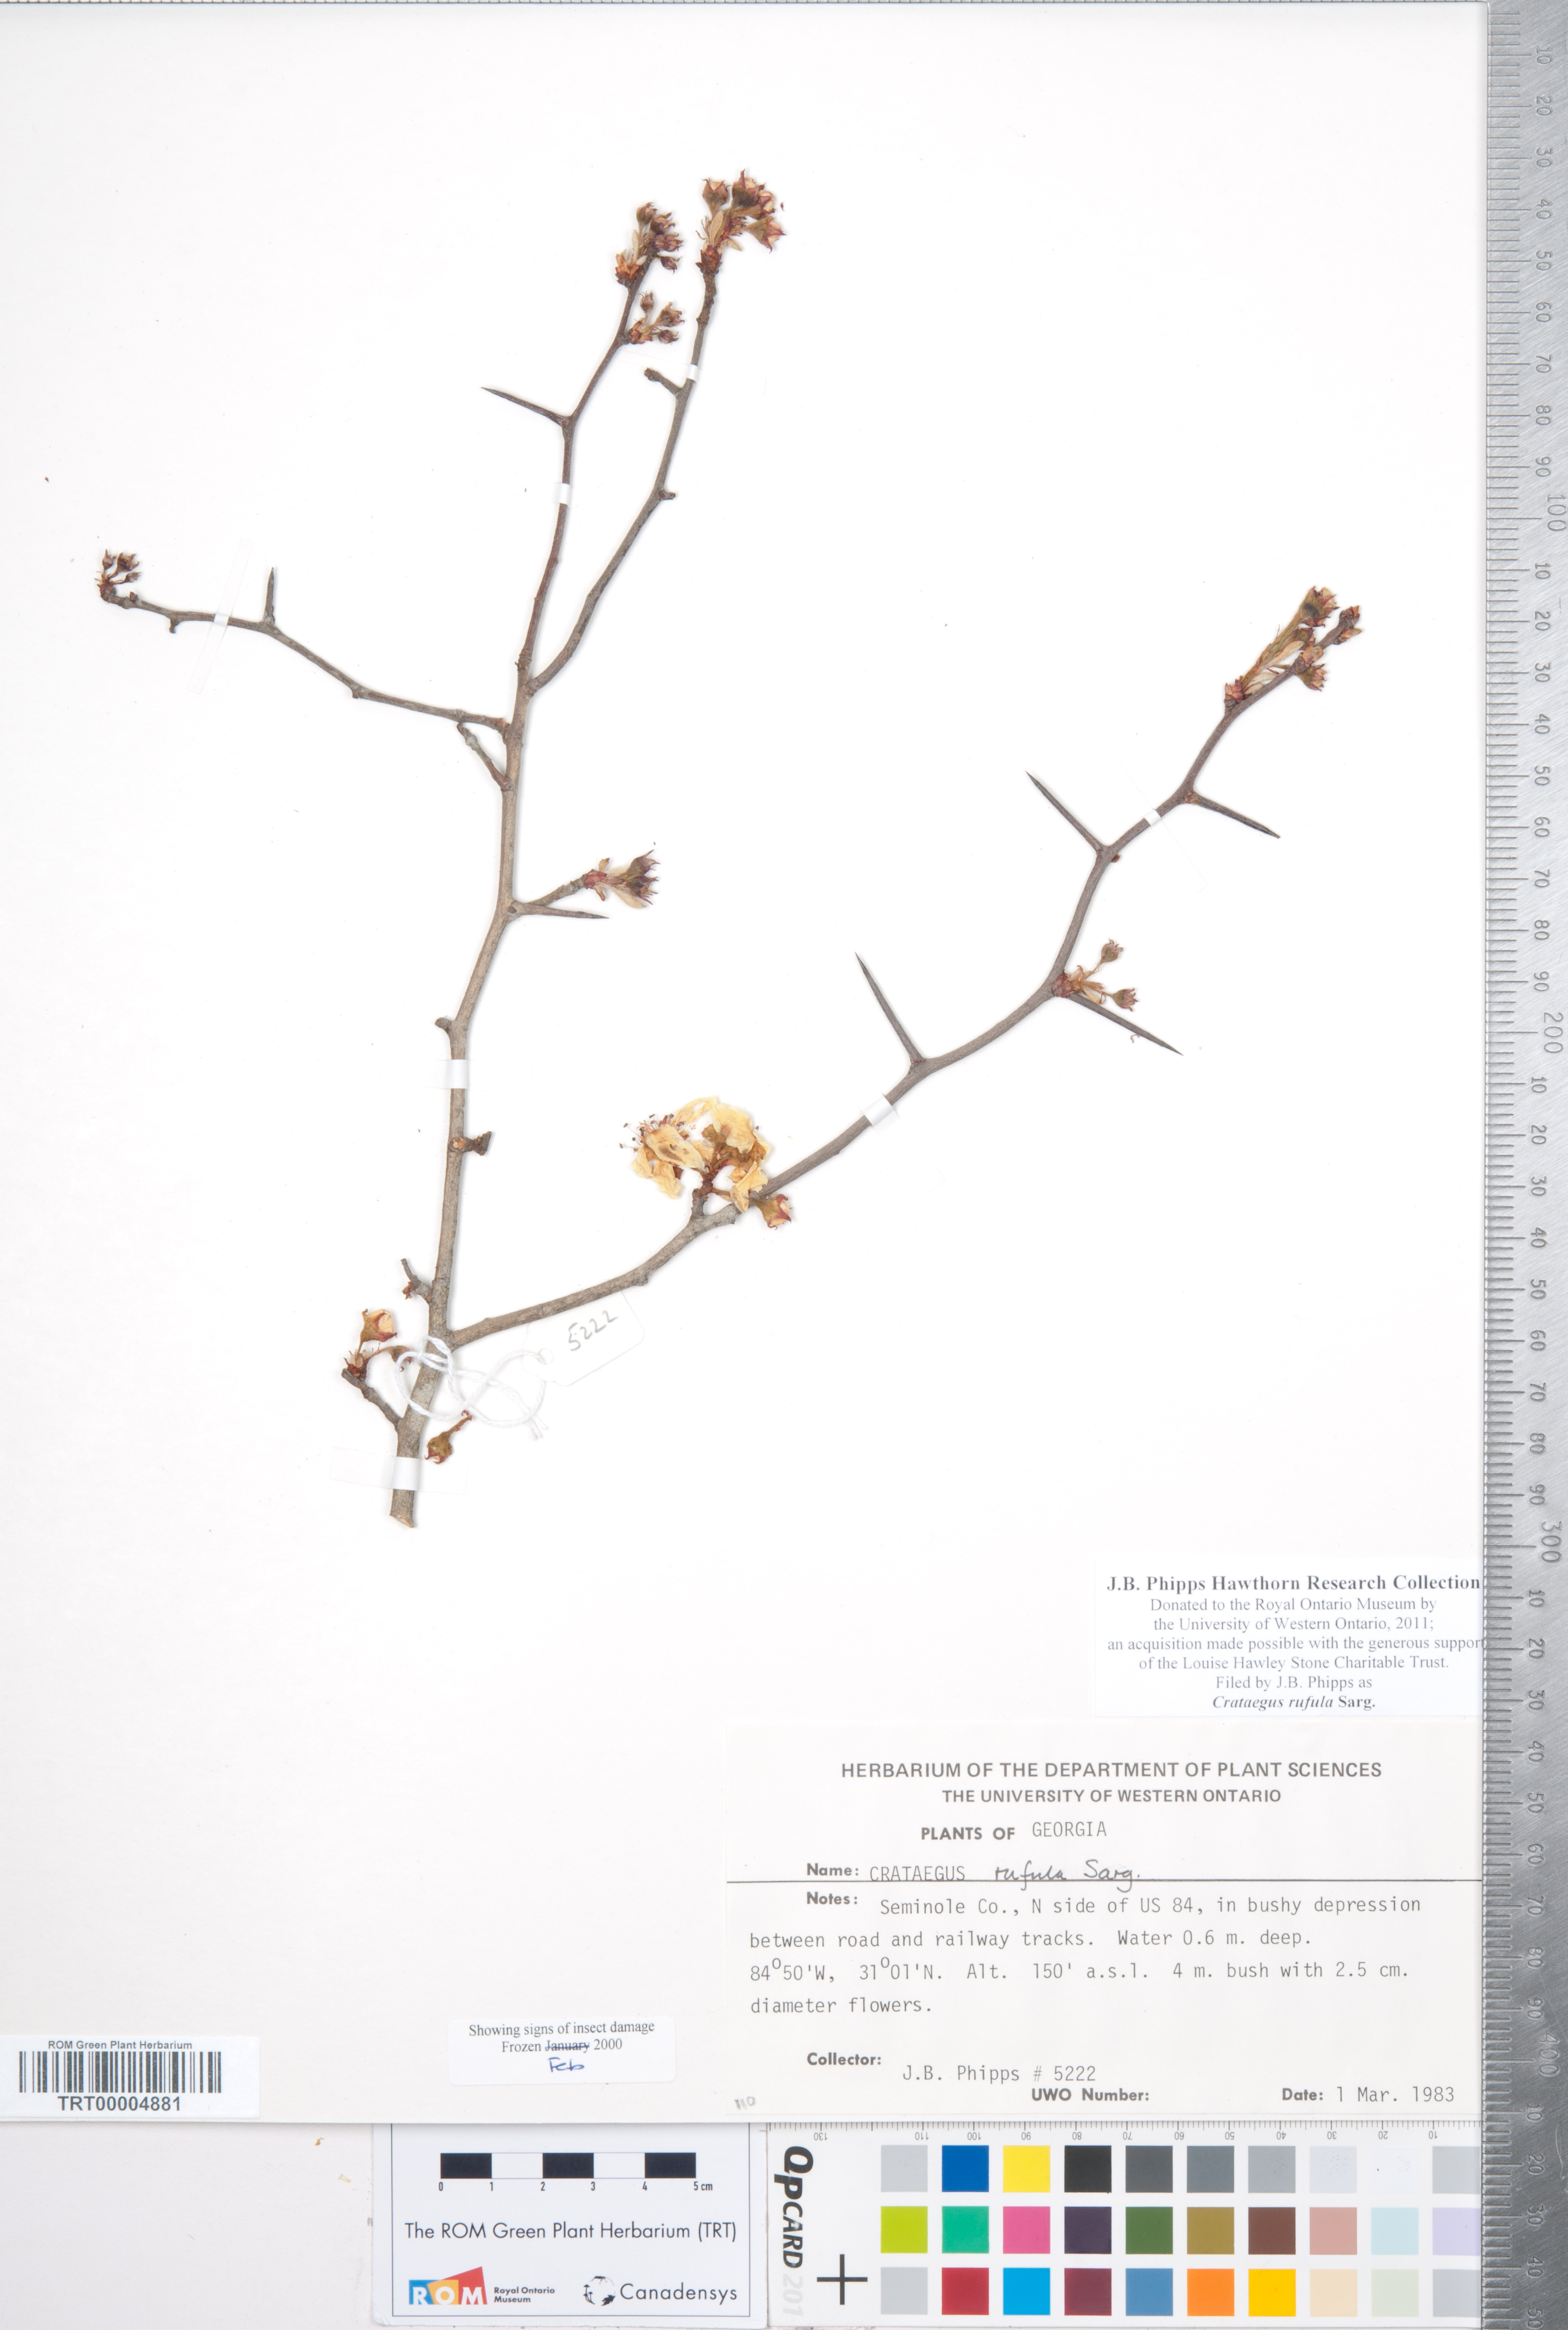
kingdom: Plantae
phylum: Tracheophyta
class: Magnoliopsida
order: Rosales
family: Rosaceae
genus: Crataegus
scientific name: Crataegus rufula
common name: Rufous mayhaw
